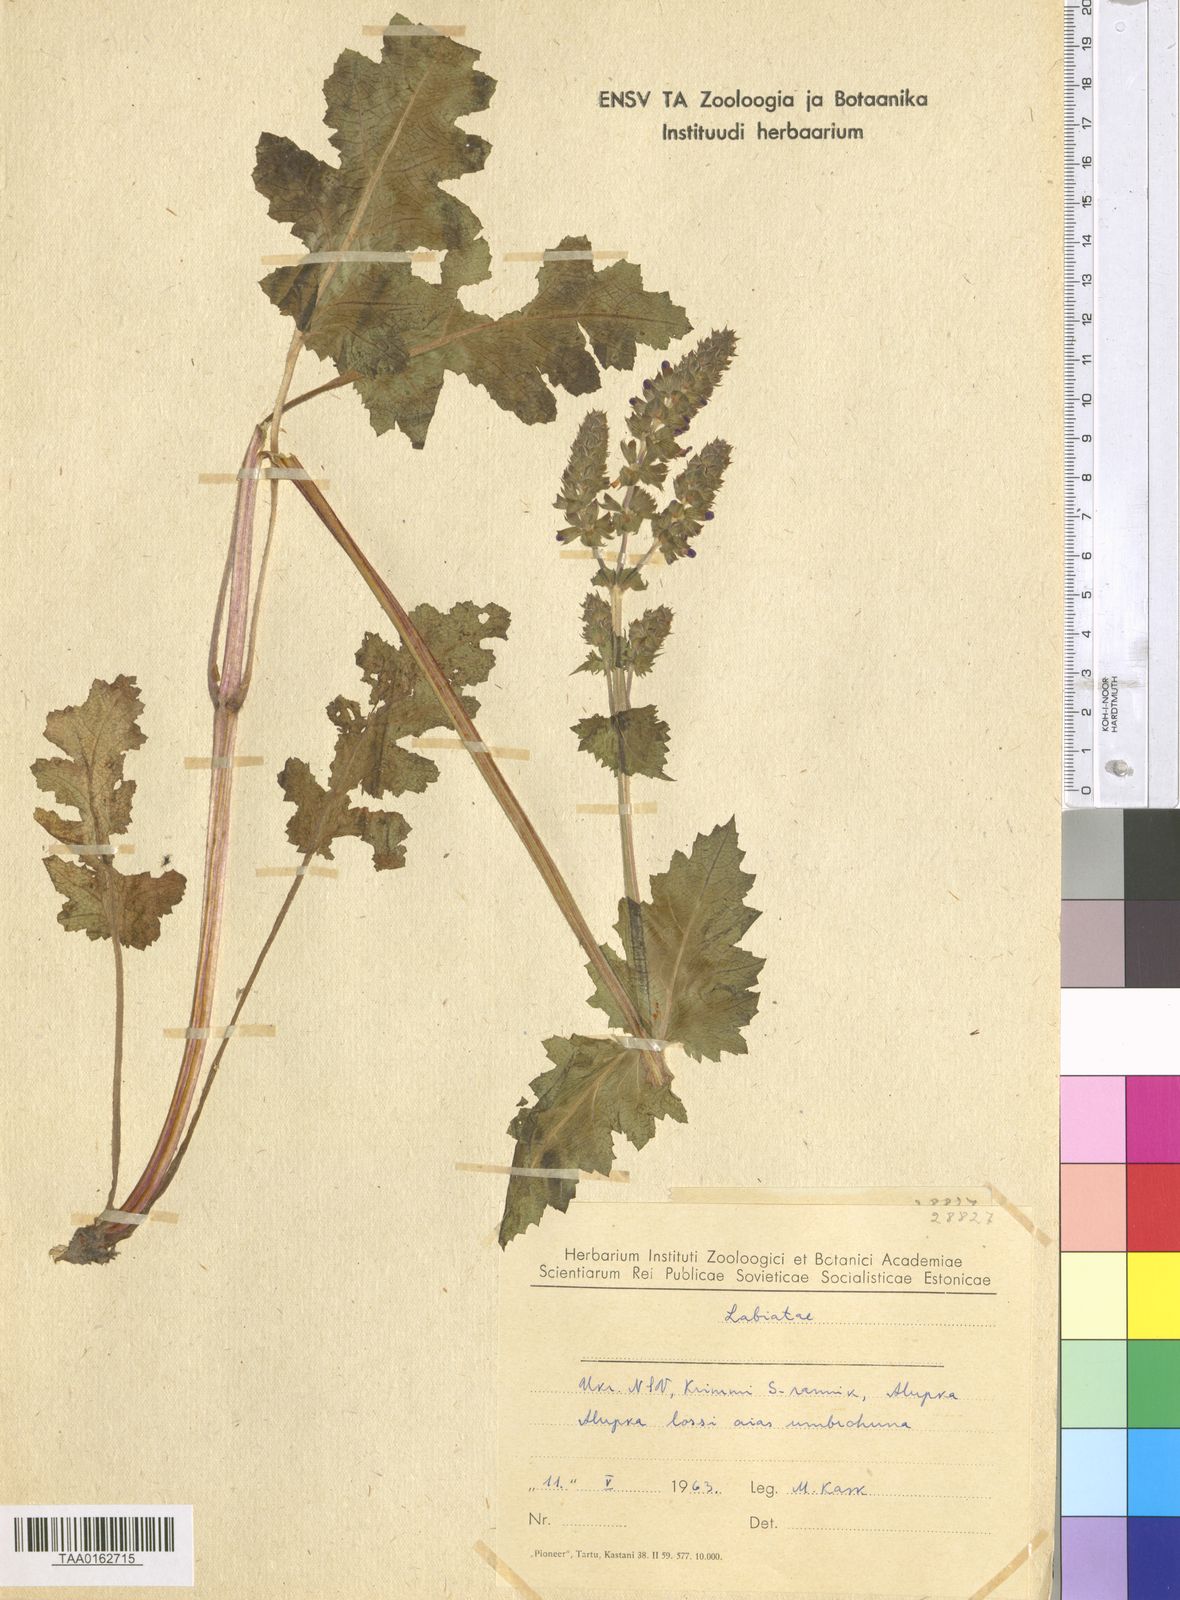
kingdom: Plantae
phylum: Tracheophyta
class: Magnoliopsida
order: Lamiales
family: Lamiaceae
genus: Salvia
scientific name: Salvia
